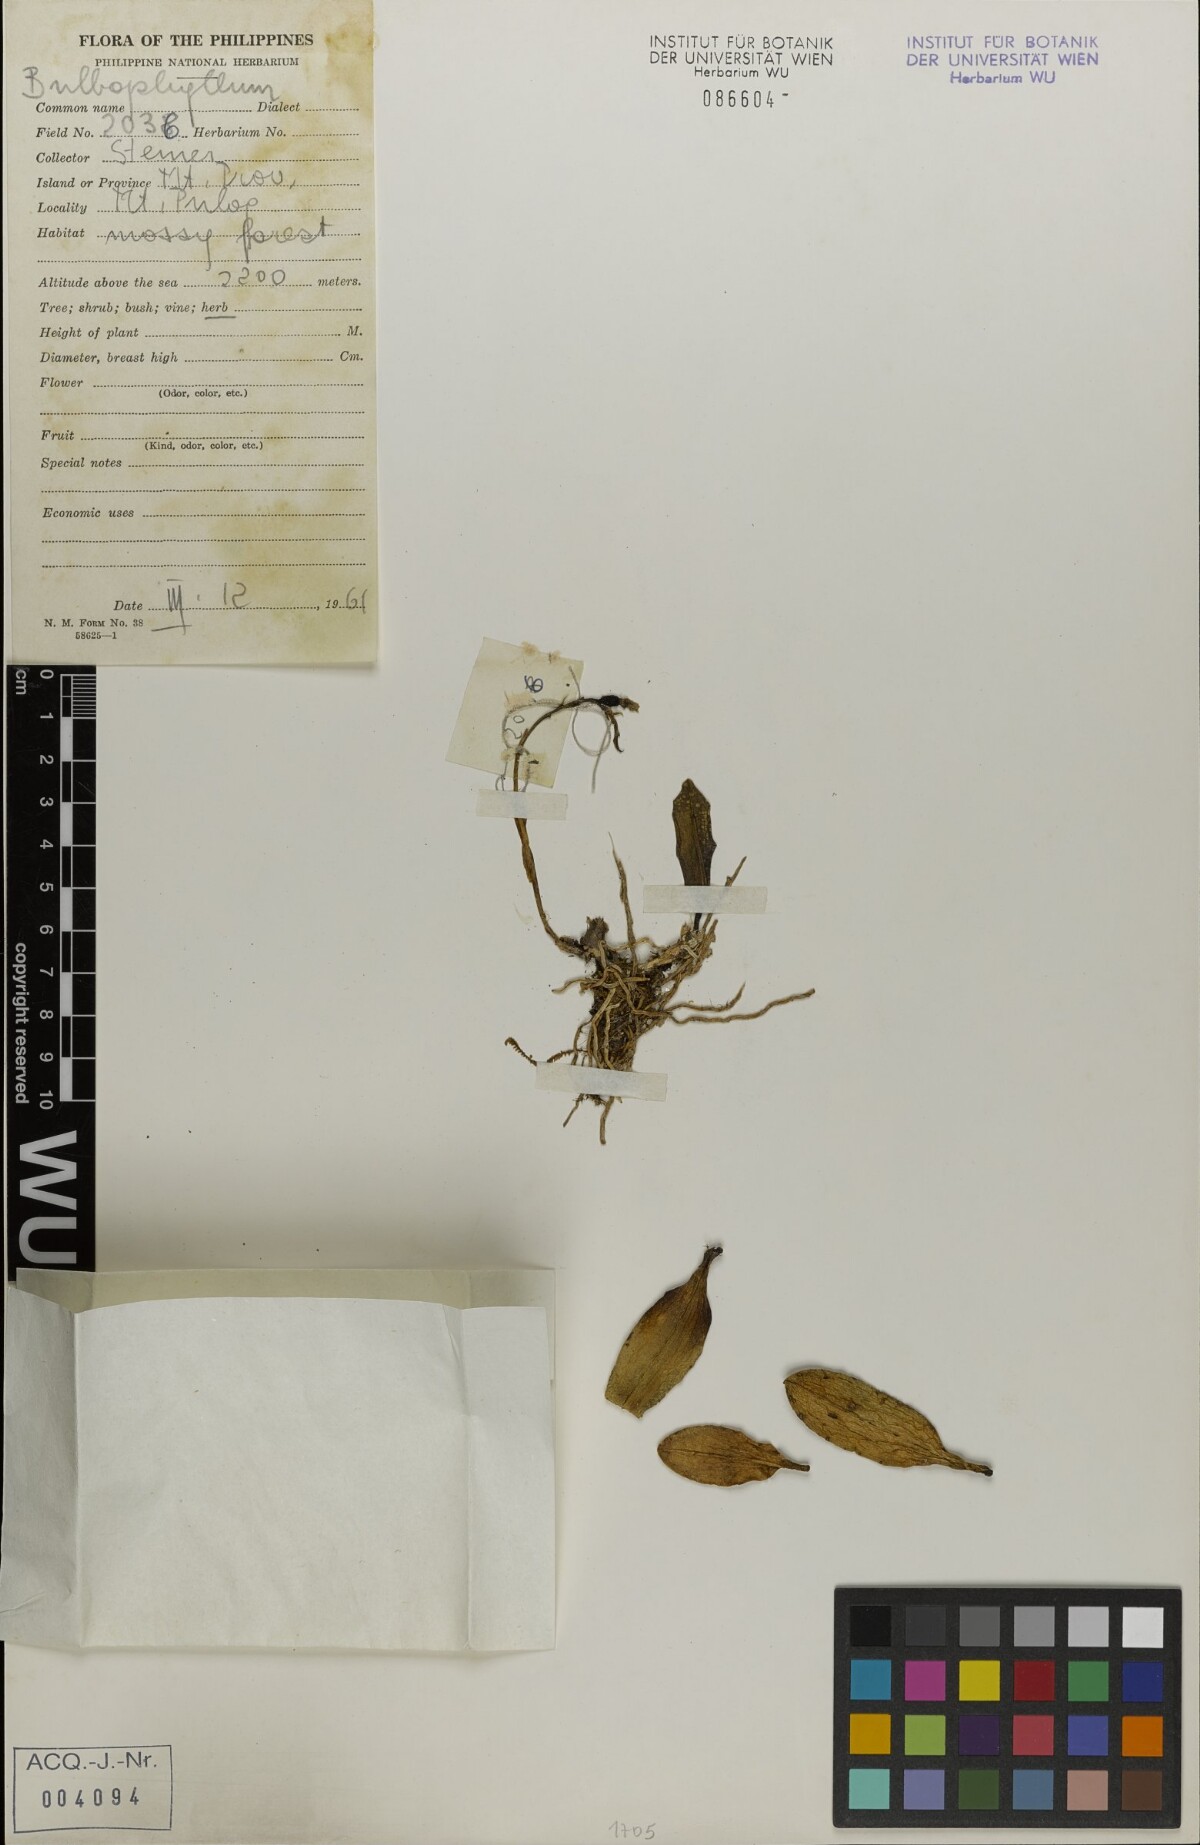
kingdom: Plantae
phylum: Tracheophyta
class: Liliopsida
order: Asparagales
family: Orchidaceae
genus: Bulbophyllum
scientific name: Bulbophyllum
